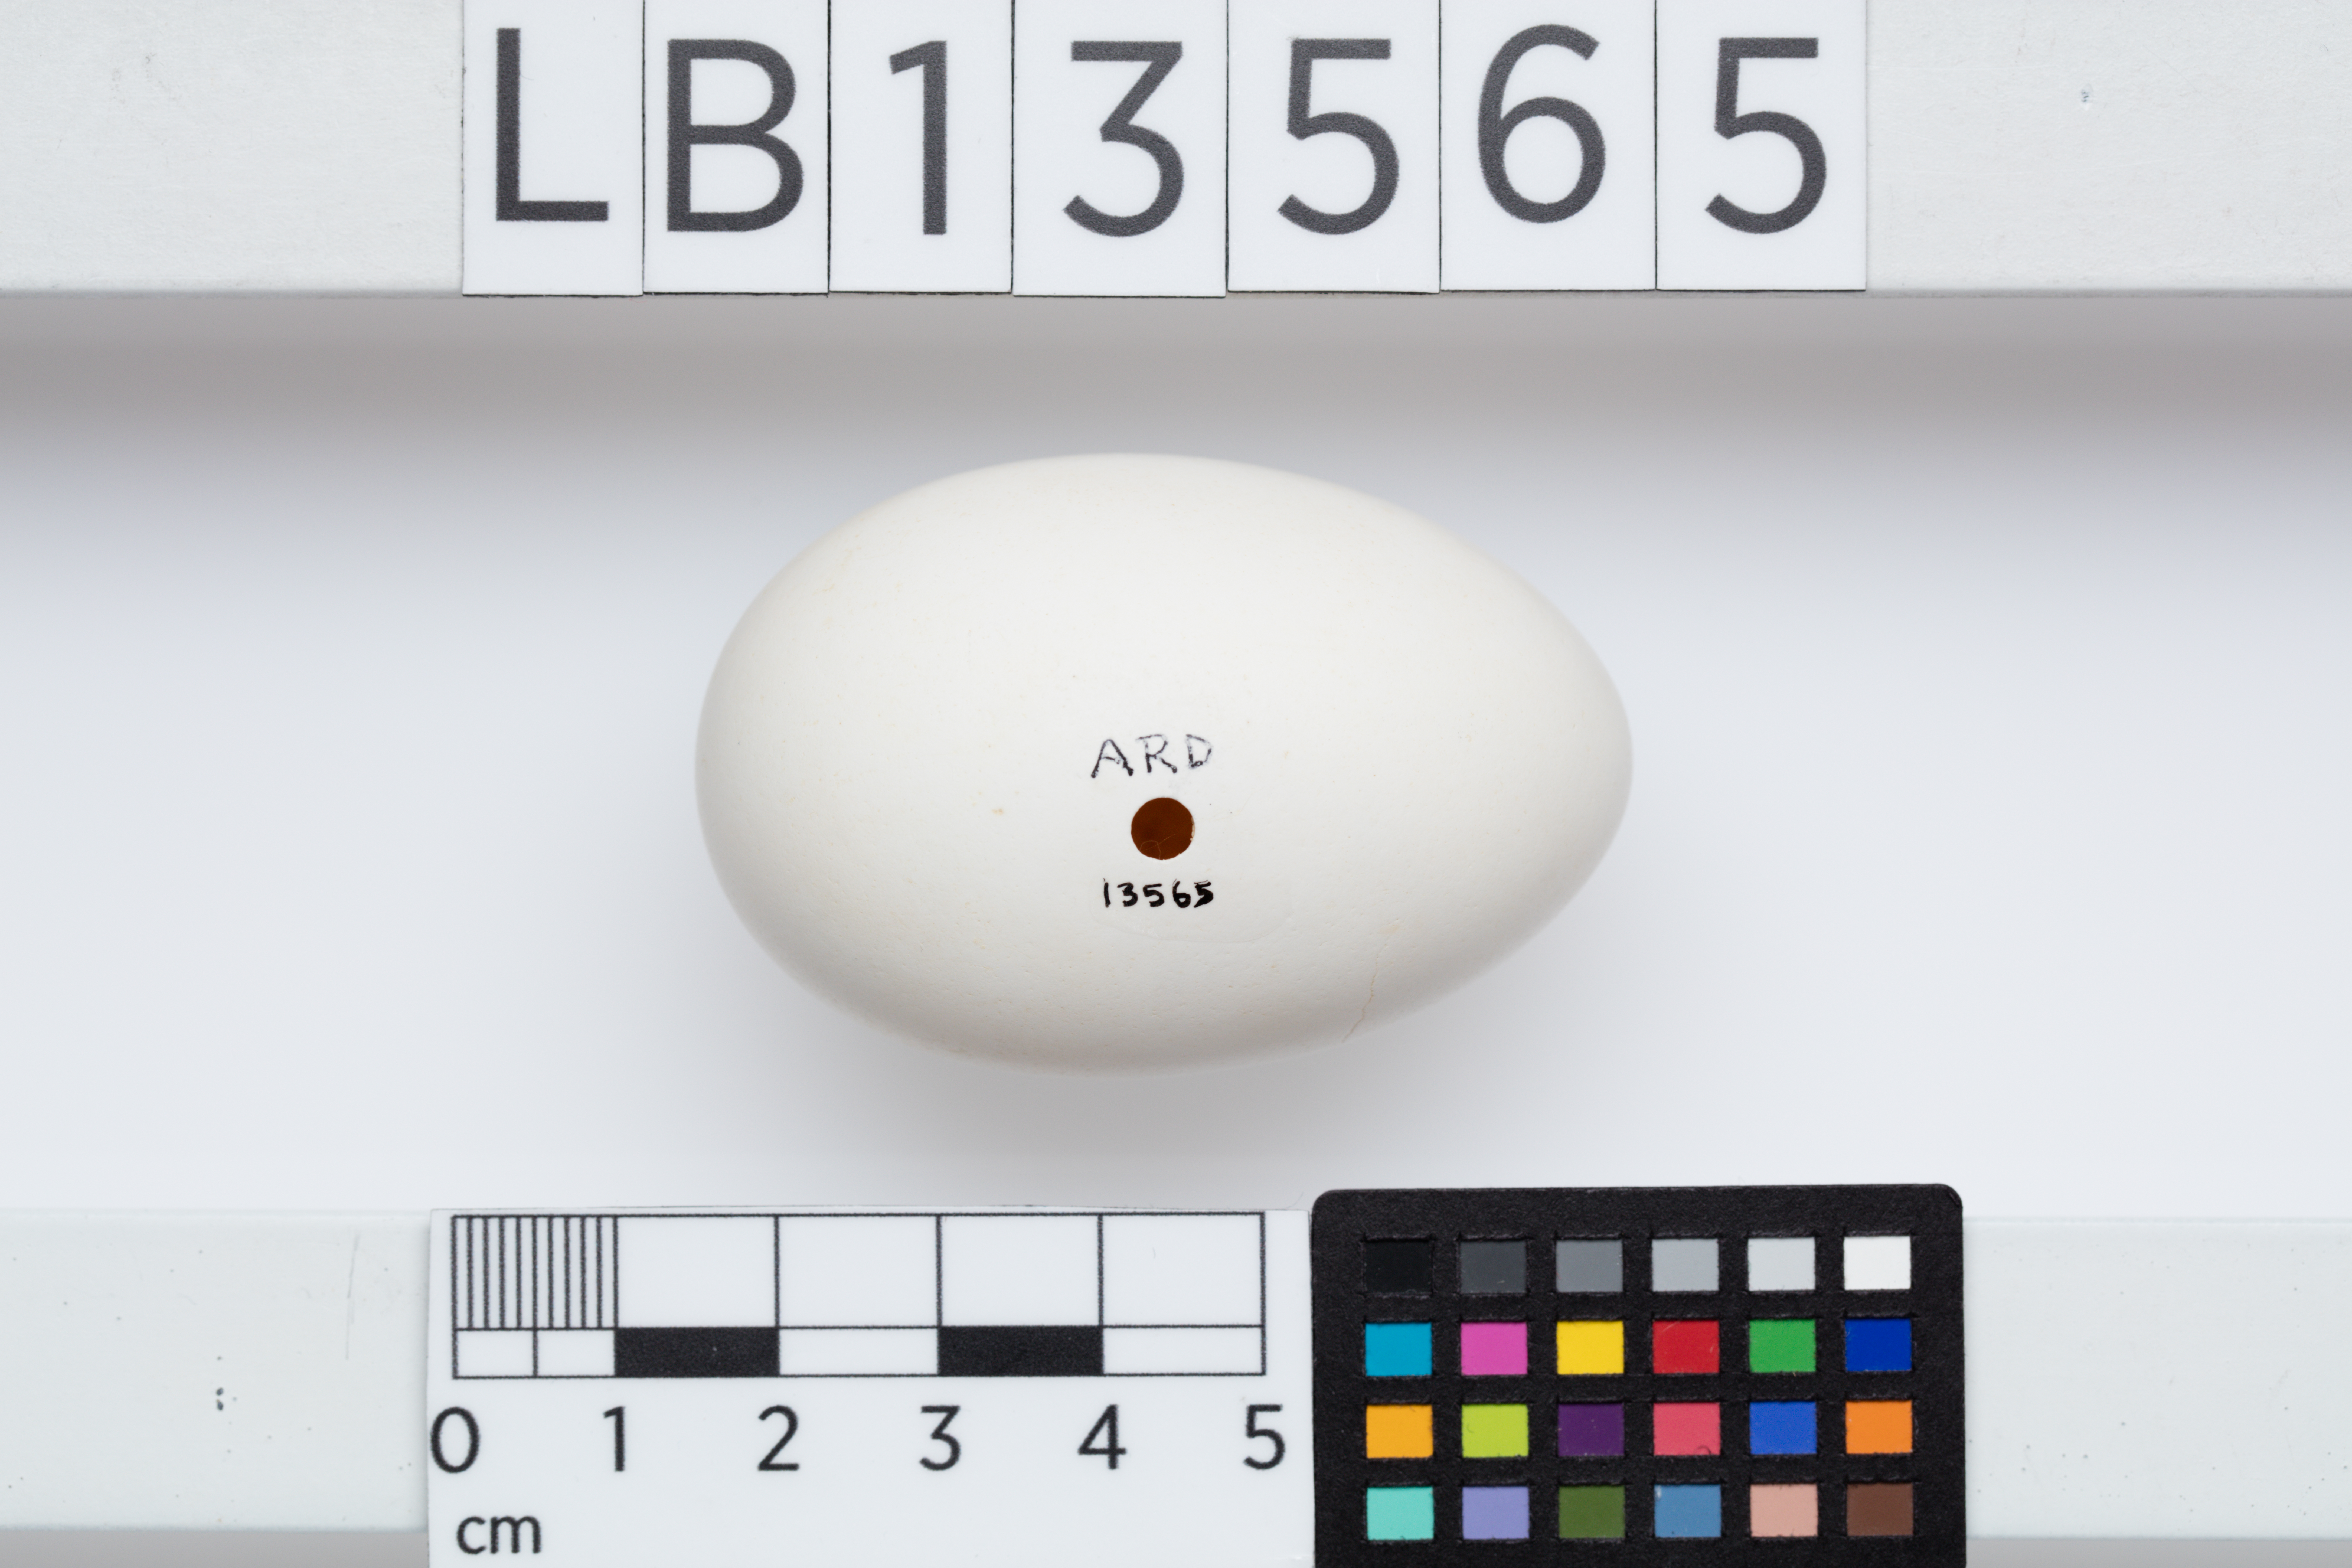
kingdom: Animalia
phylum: Chordata
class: Aves
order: Procellariiformes
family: Procellariidae
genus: Ardenna
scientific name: Ardenna
